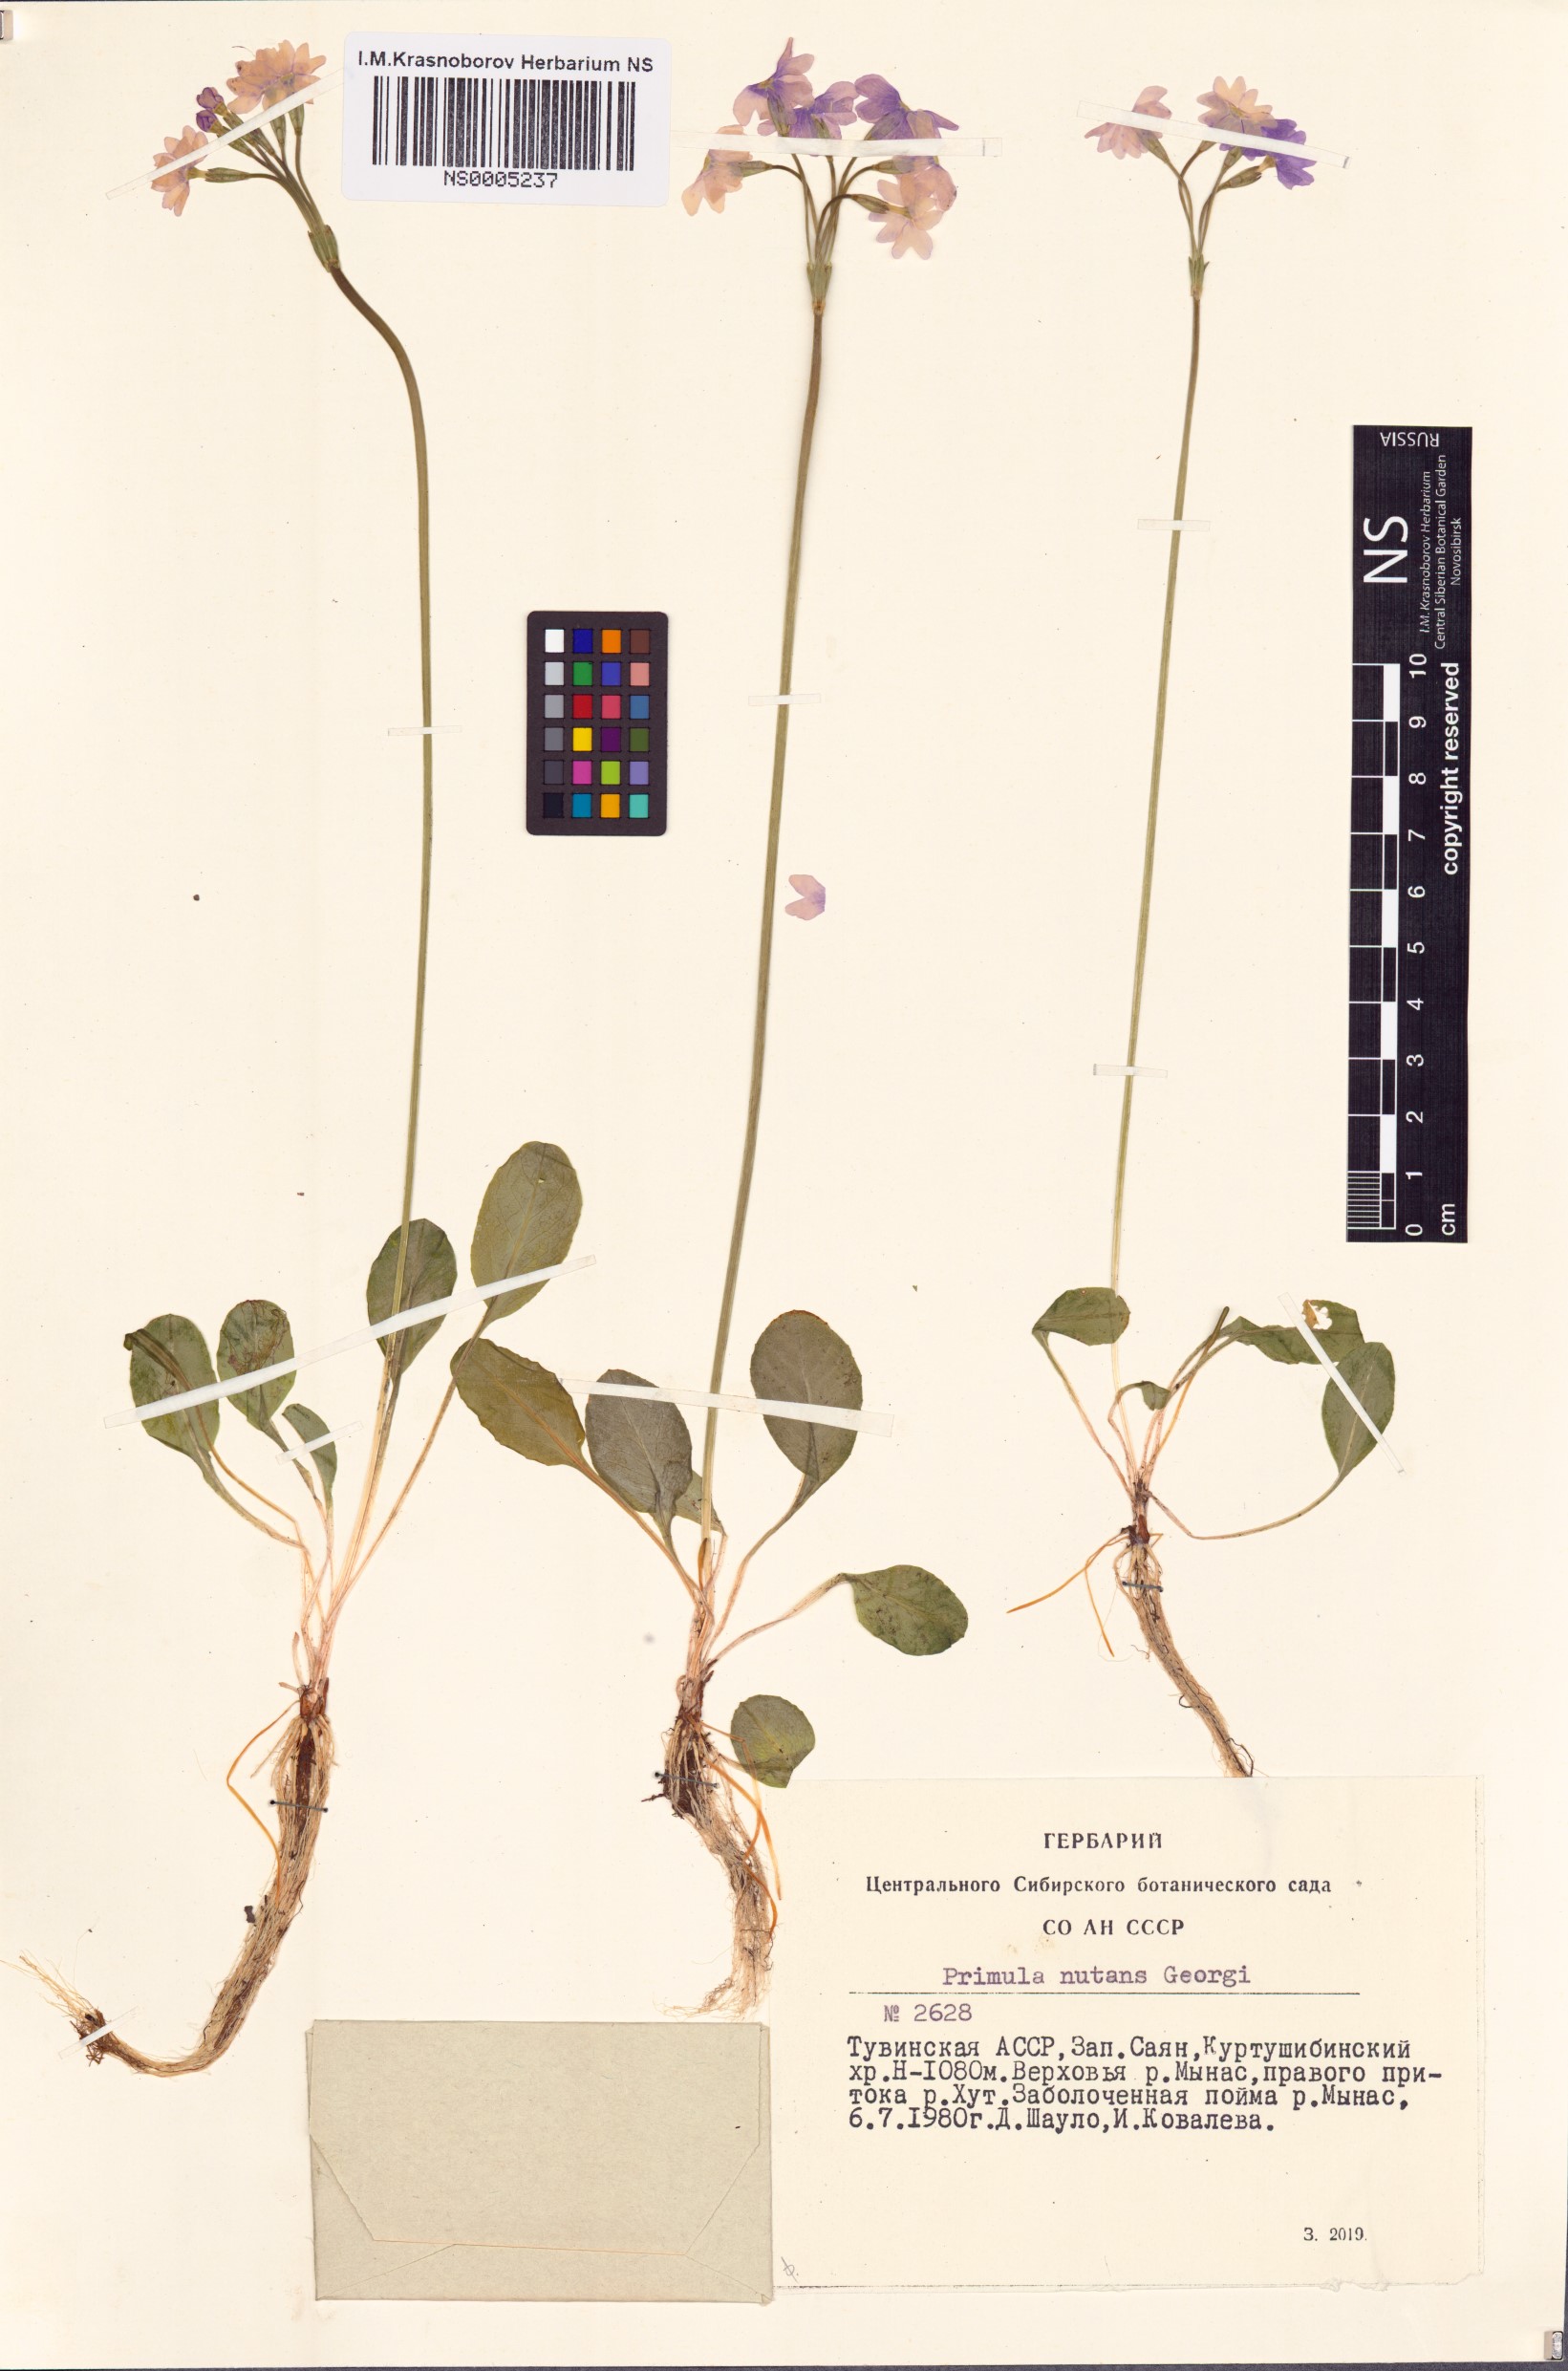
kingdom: Plantae
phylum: Tracheophyta
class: Magnoliopsida
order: Ericales
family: Primulaceae
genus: Primula
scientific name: Primula nutans
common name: Siberian primrose
